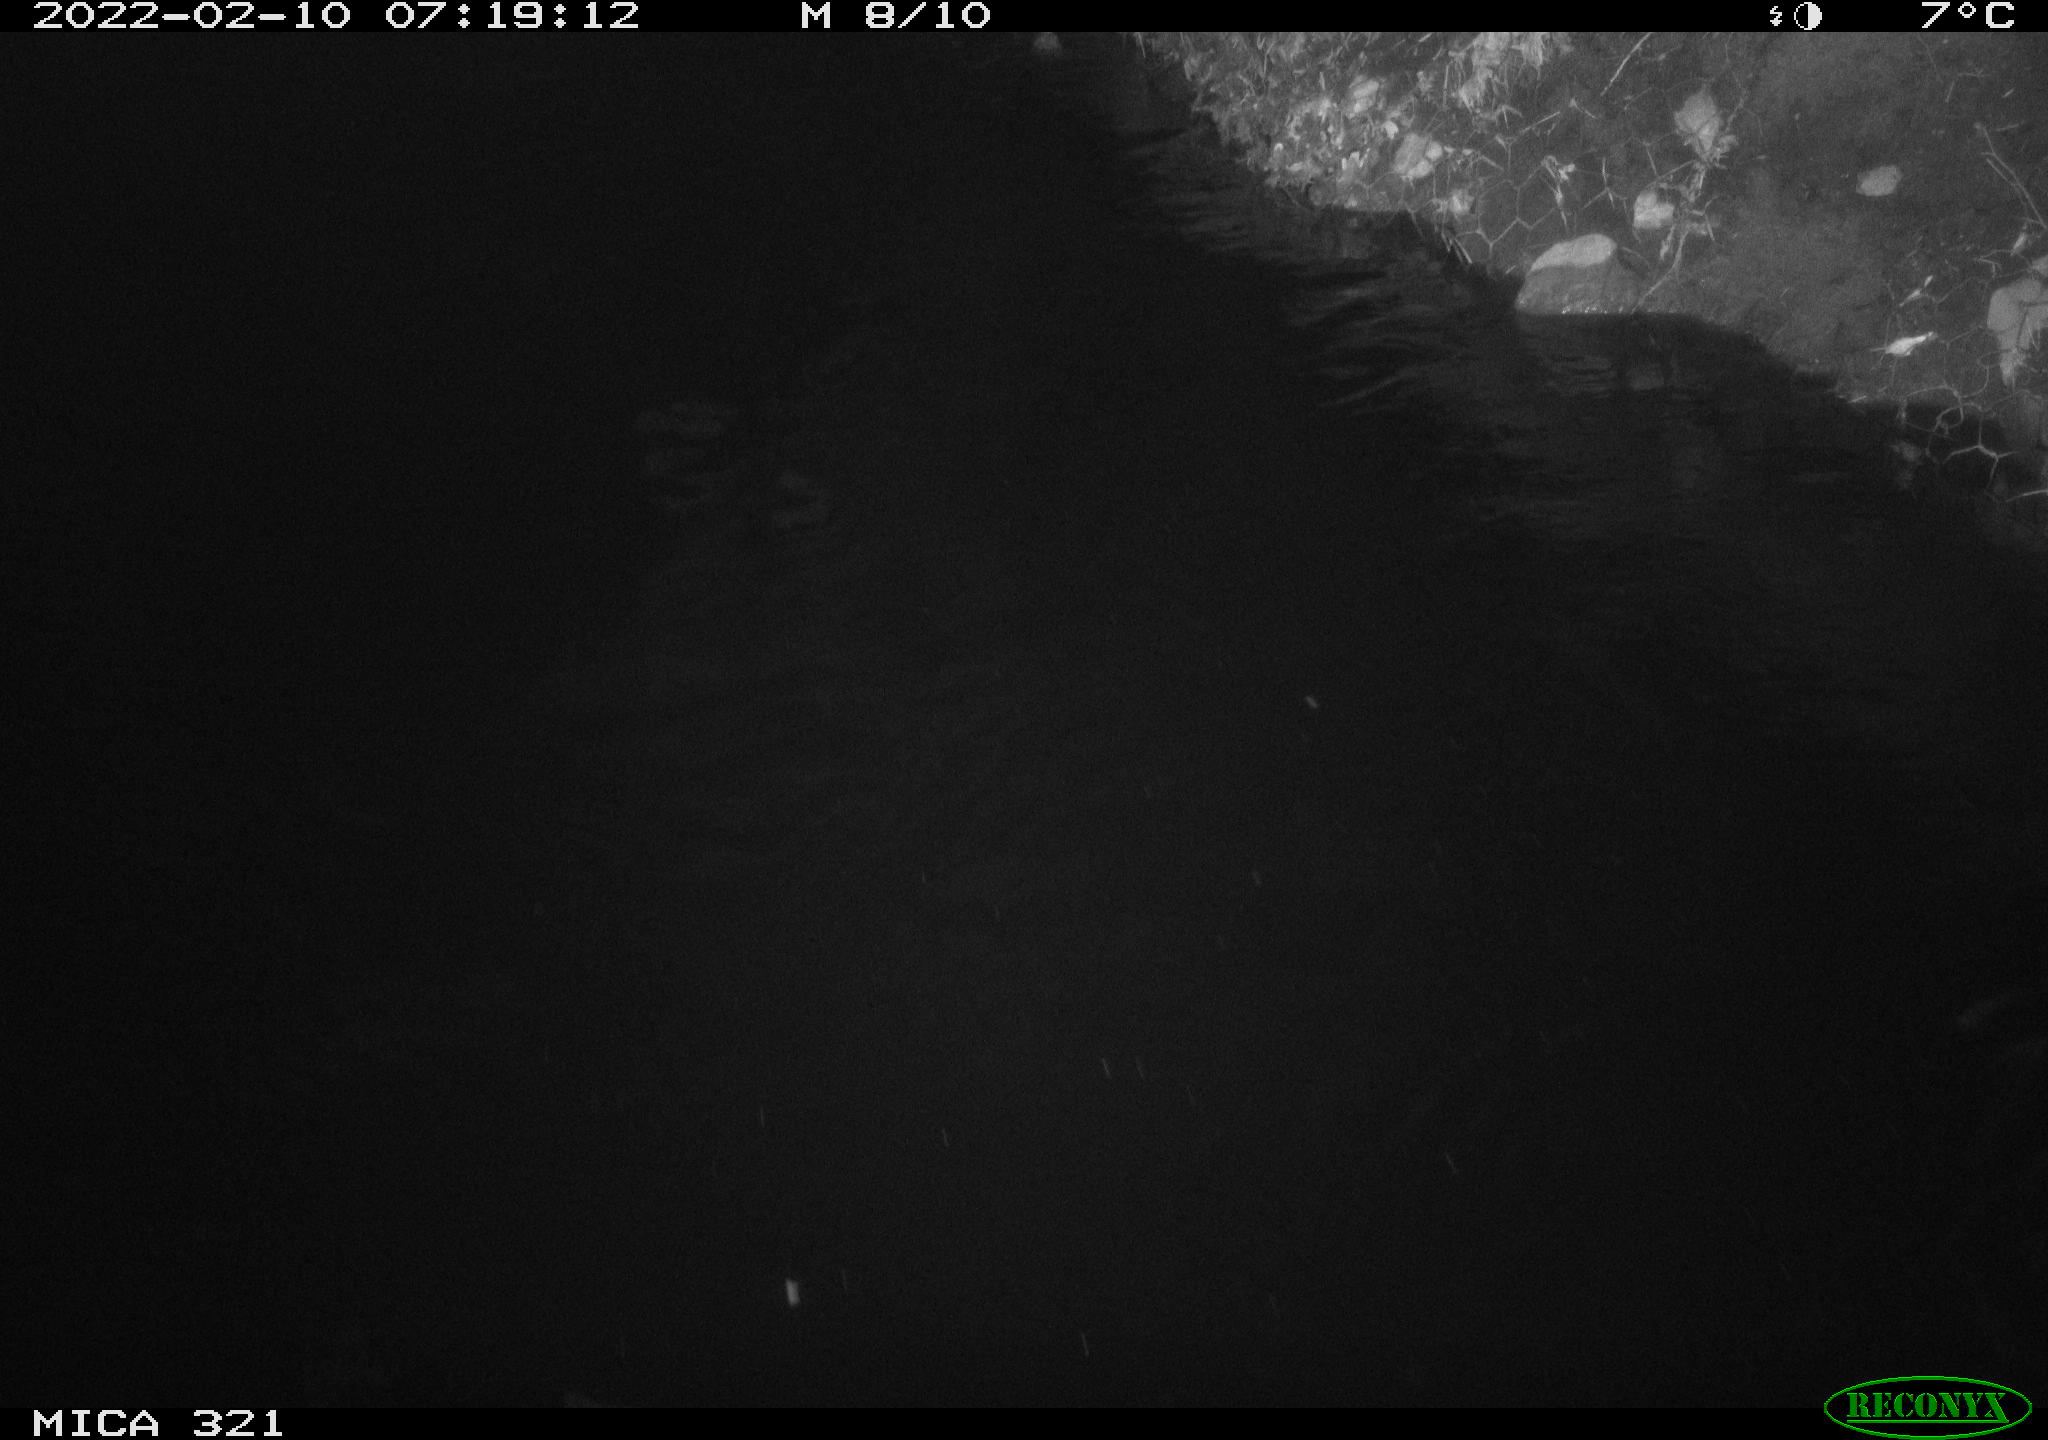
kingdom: Animalia
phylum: Chordata
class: Aves
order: Anseriformes
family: Anatidae
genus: Anas
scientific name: Anas platyrhynchos
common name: Mallard
